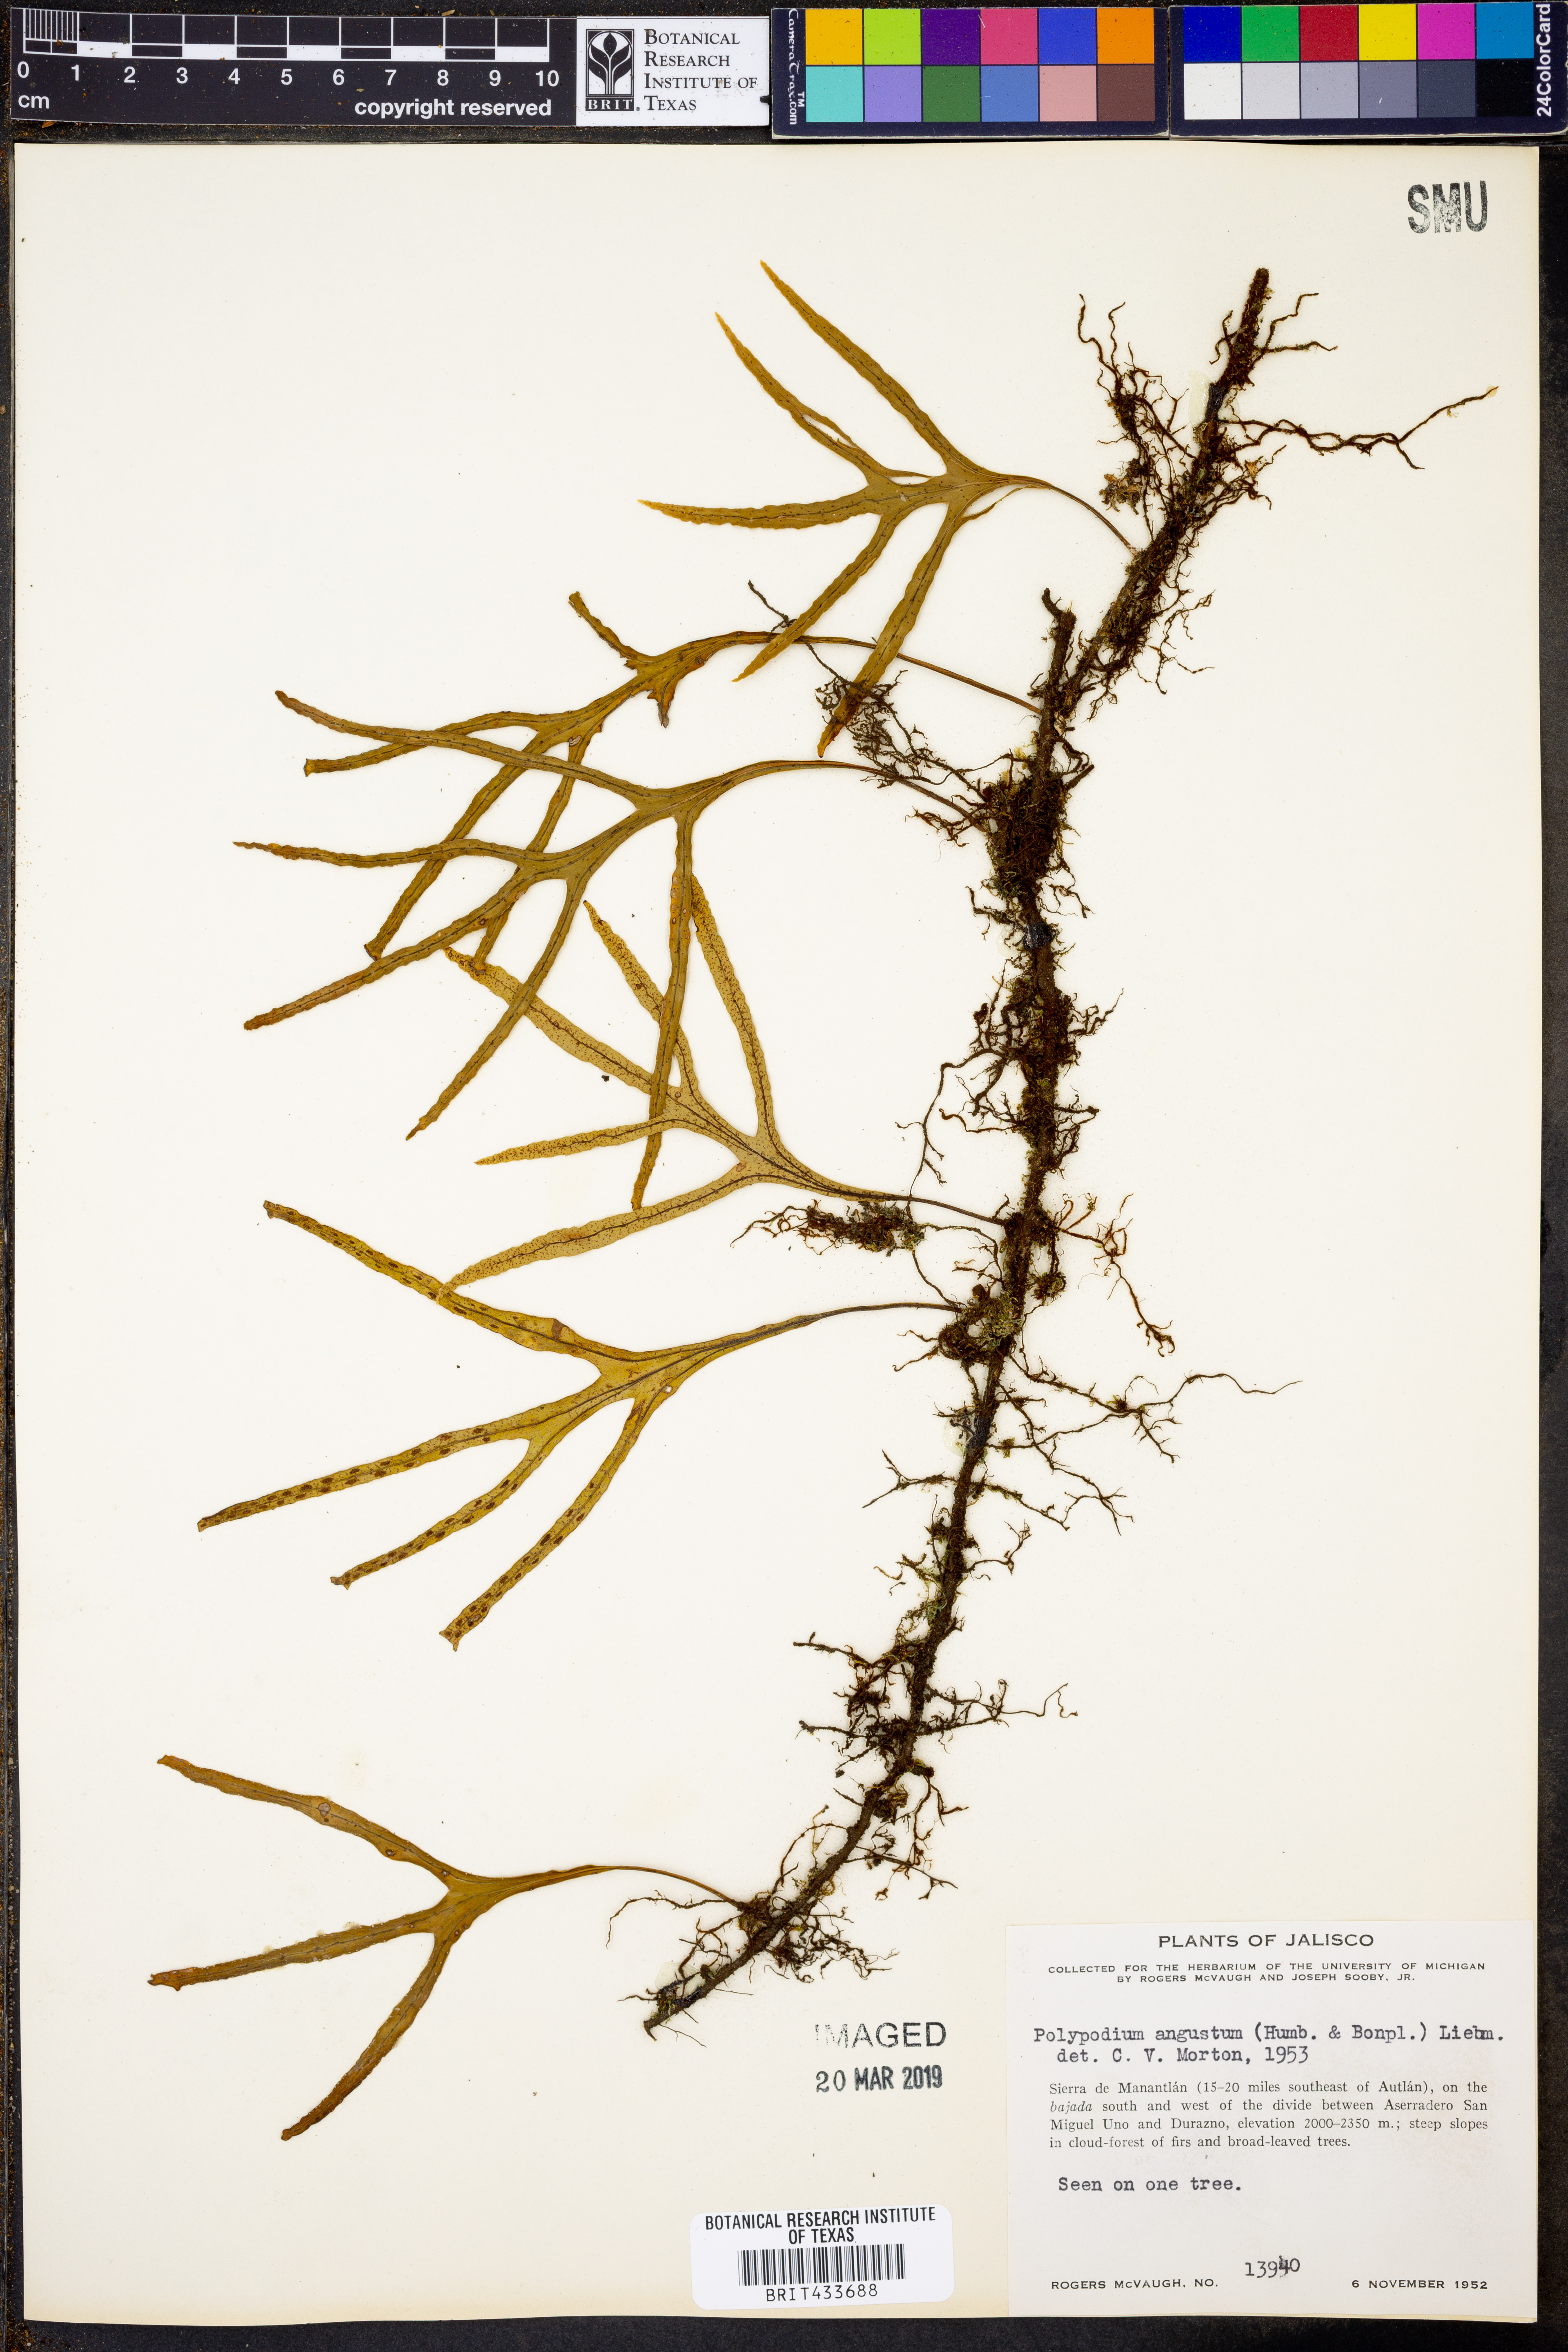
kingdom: Plantae
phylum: Tracheophyta
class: Polypodiopsida
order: Polypodiales
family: Polypodiaceae
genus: Pleopeltis
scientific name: Pleopeltis angusta
